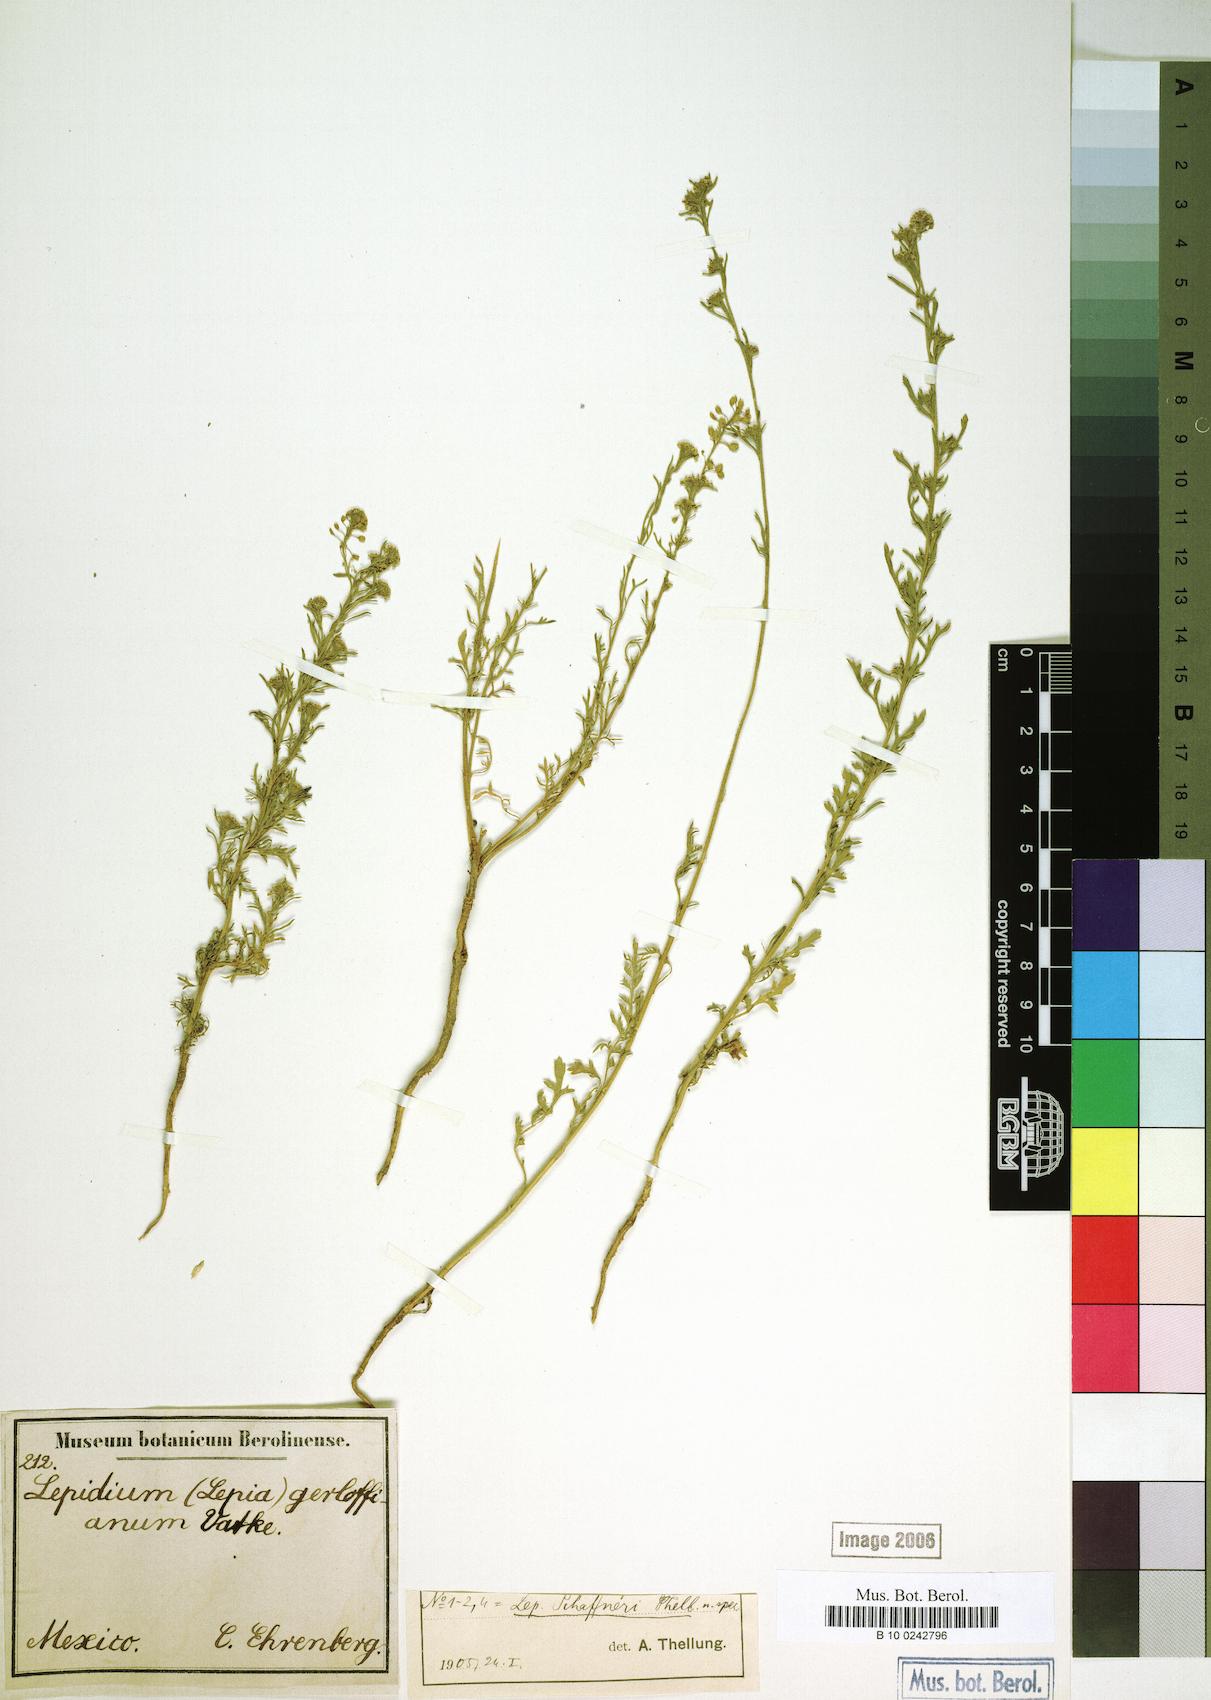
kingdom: Plantae
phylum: Tracheophyta
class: Magnoliopsida
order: Brassicales
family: Brassicaceae
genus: Lepidium
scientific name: Lepidium schaffneri
